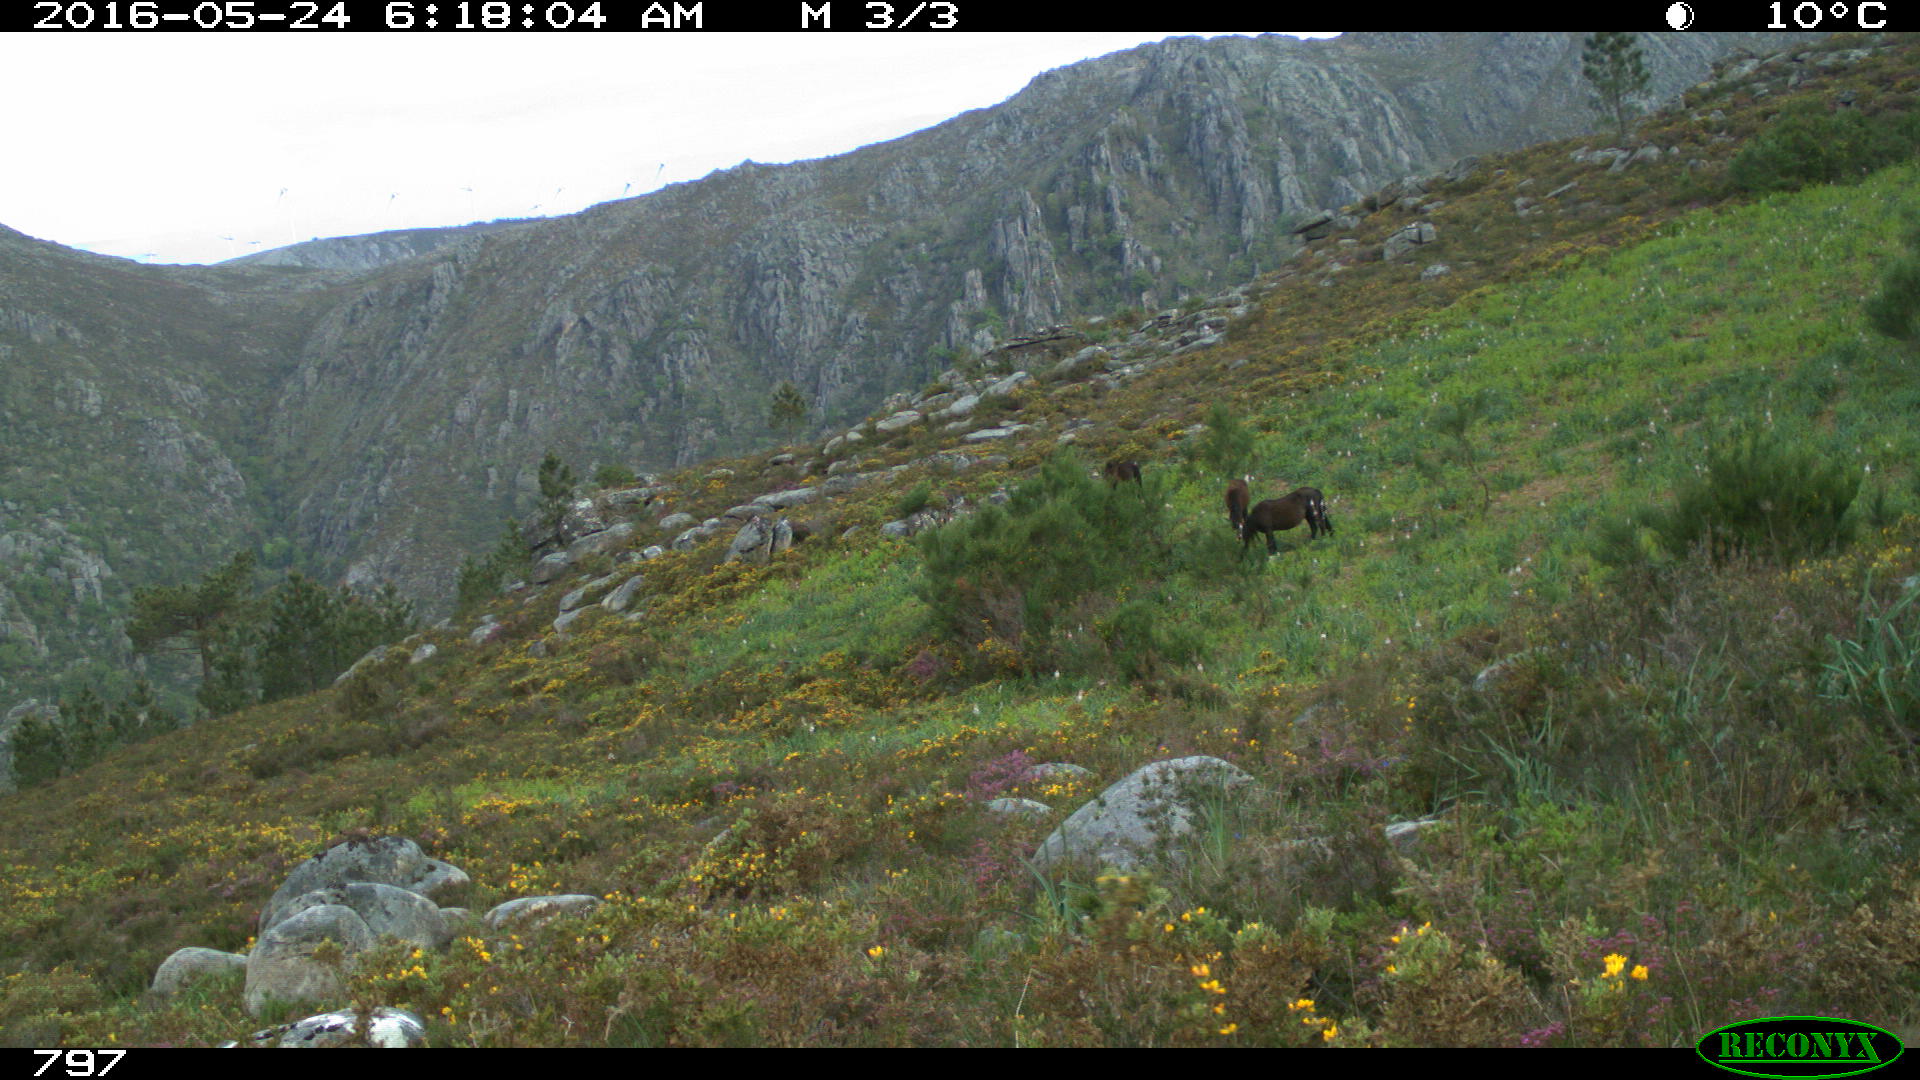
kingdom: Animalia
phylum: Chordata
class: Mammalia
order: Perissodactyla
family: Equidae
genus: Equus
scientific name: Equus caballus
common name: Horse
